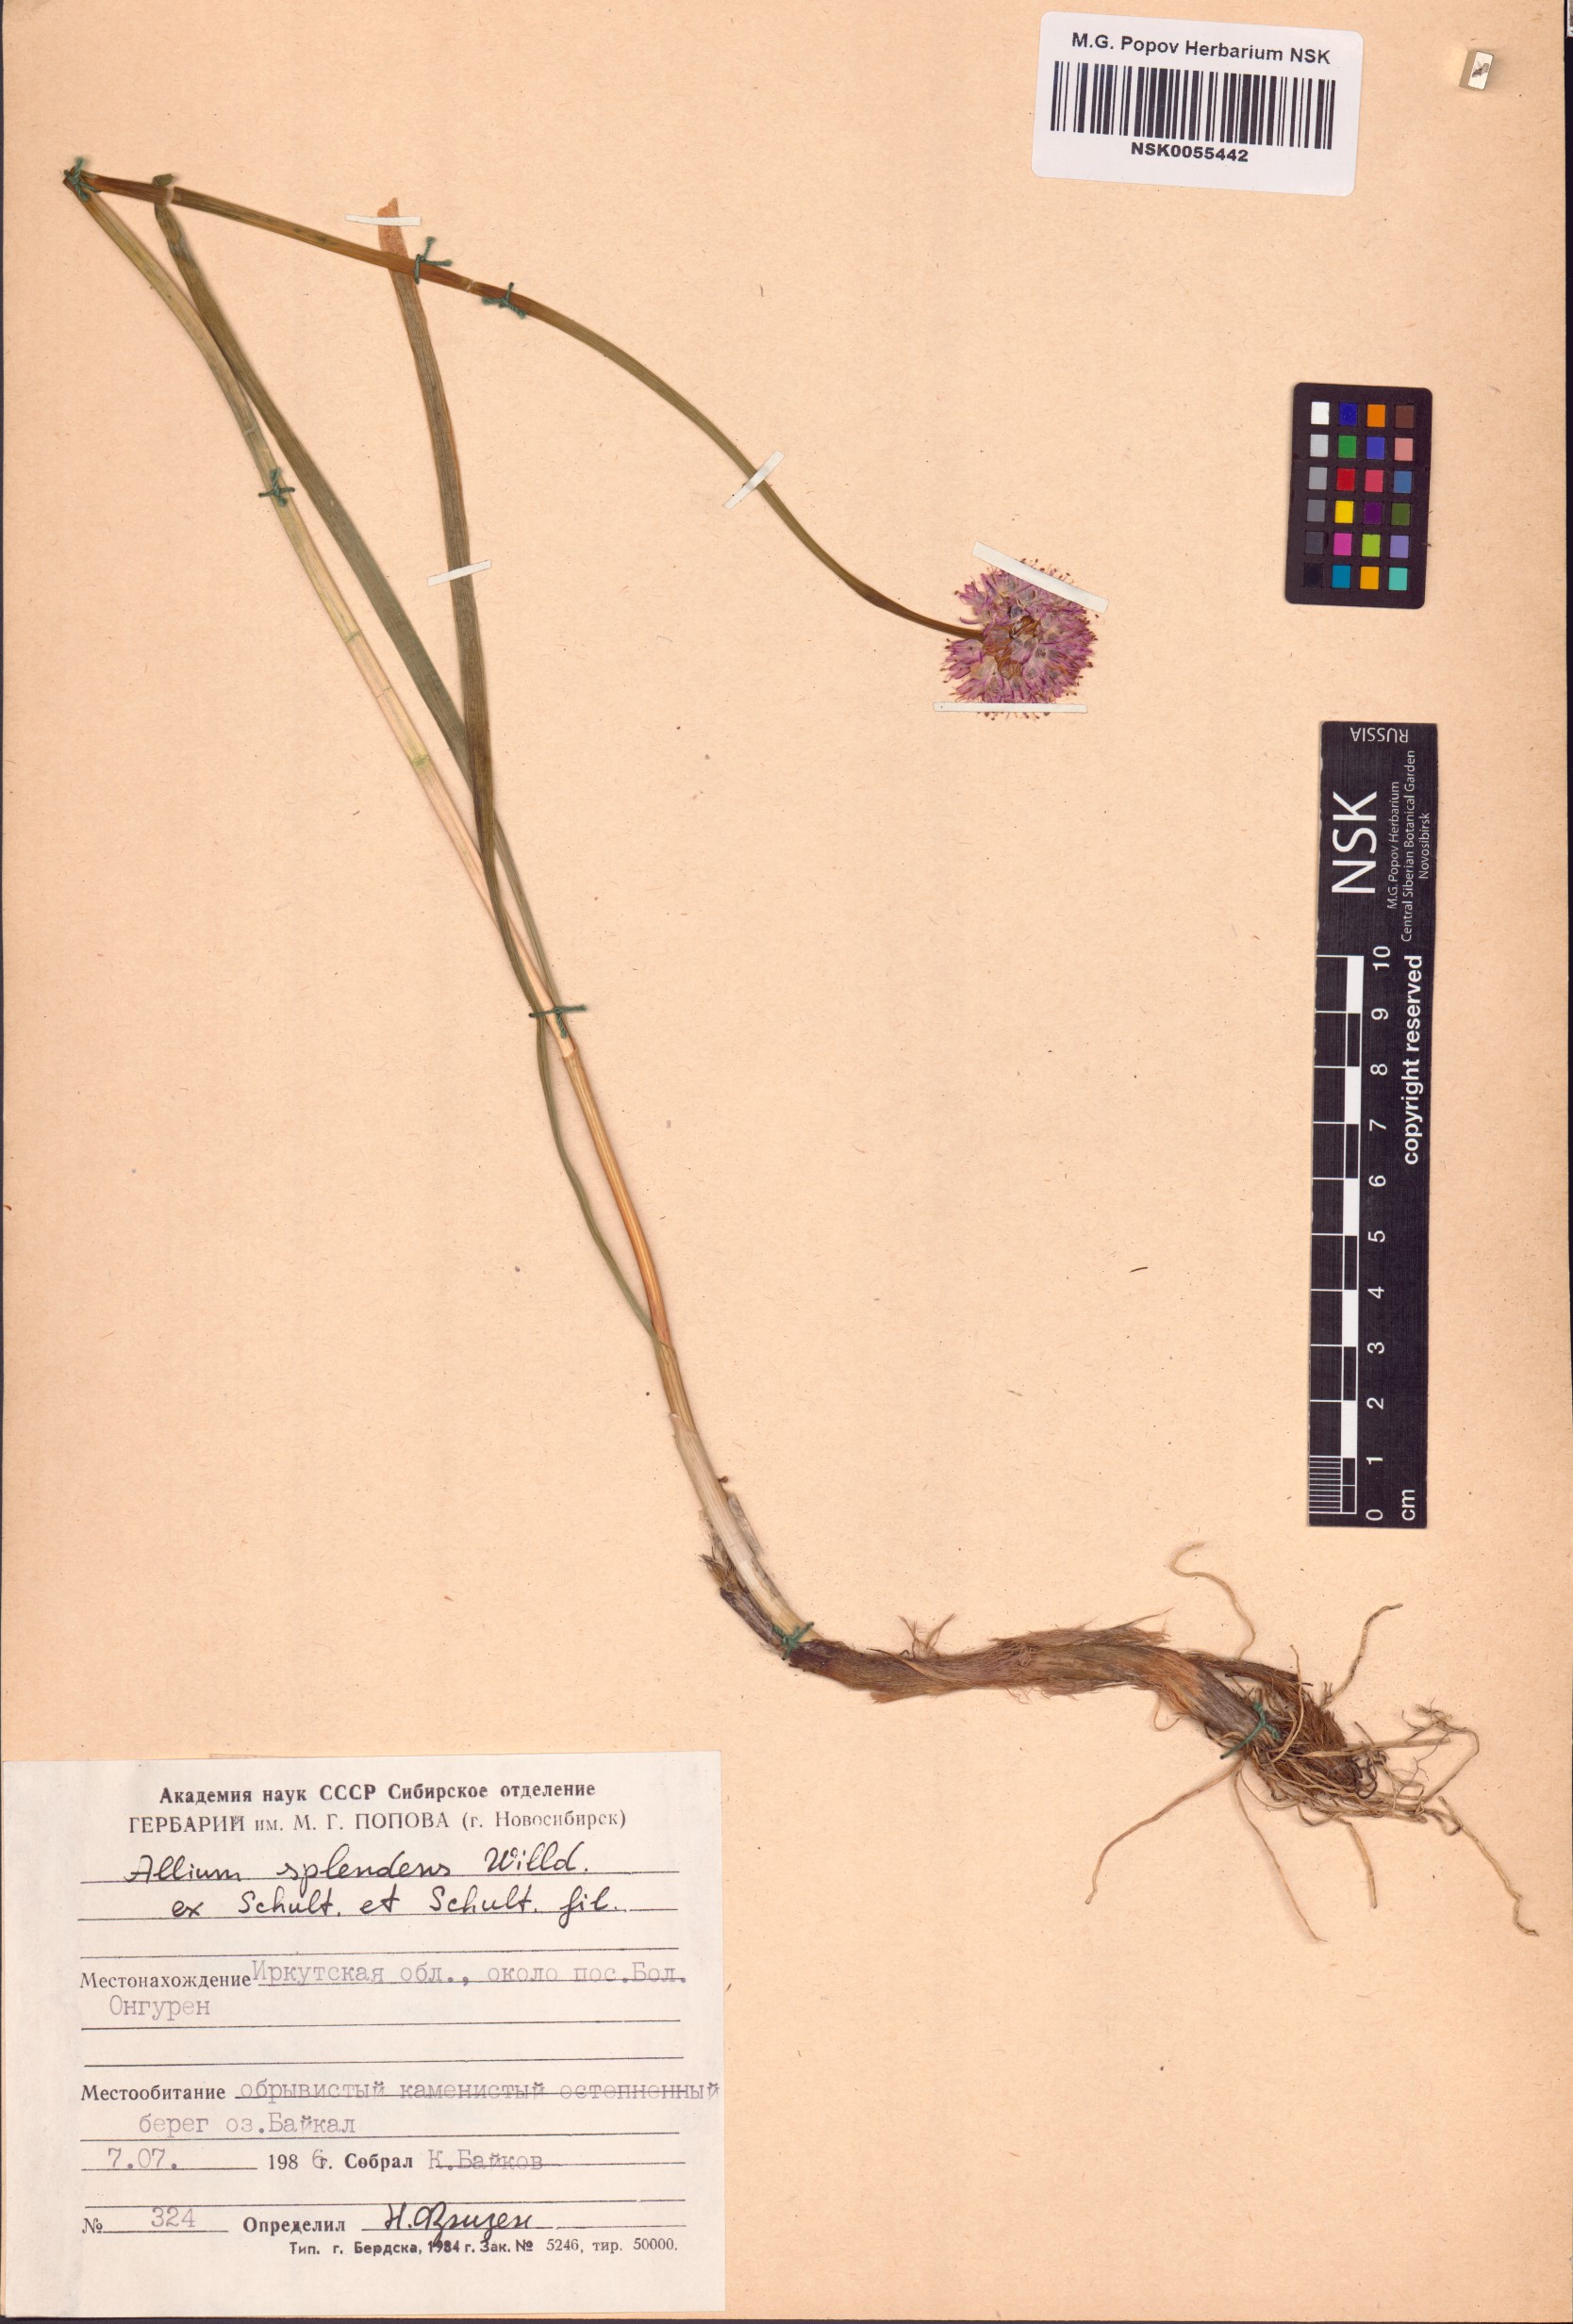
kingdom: Plantae
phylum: Tracheophyta
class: Liliopsida
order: Asparagales
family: Amaryllidaceae
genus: Allium
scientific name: Allium splendens
